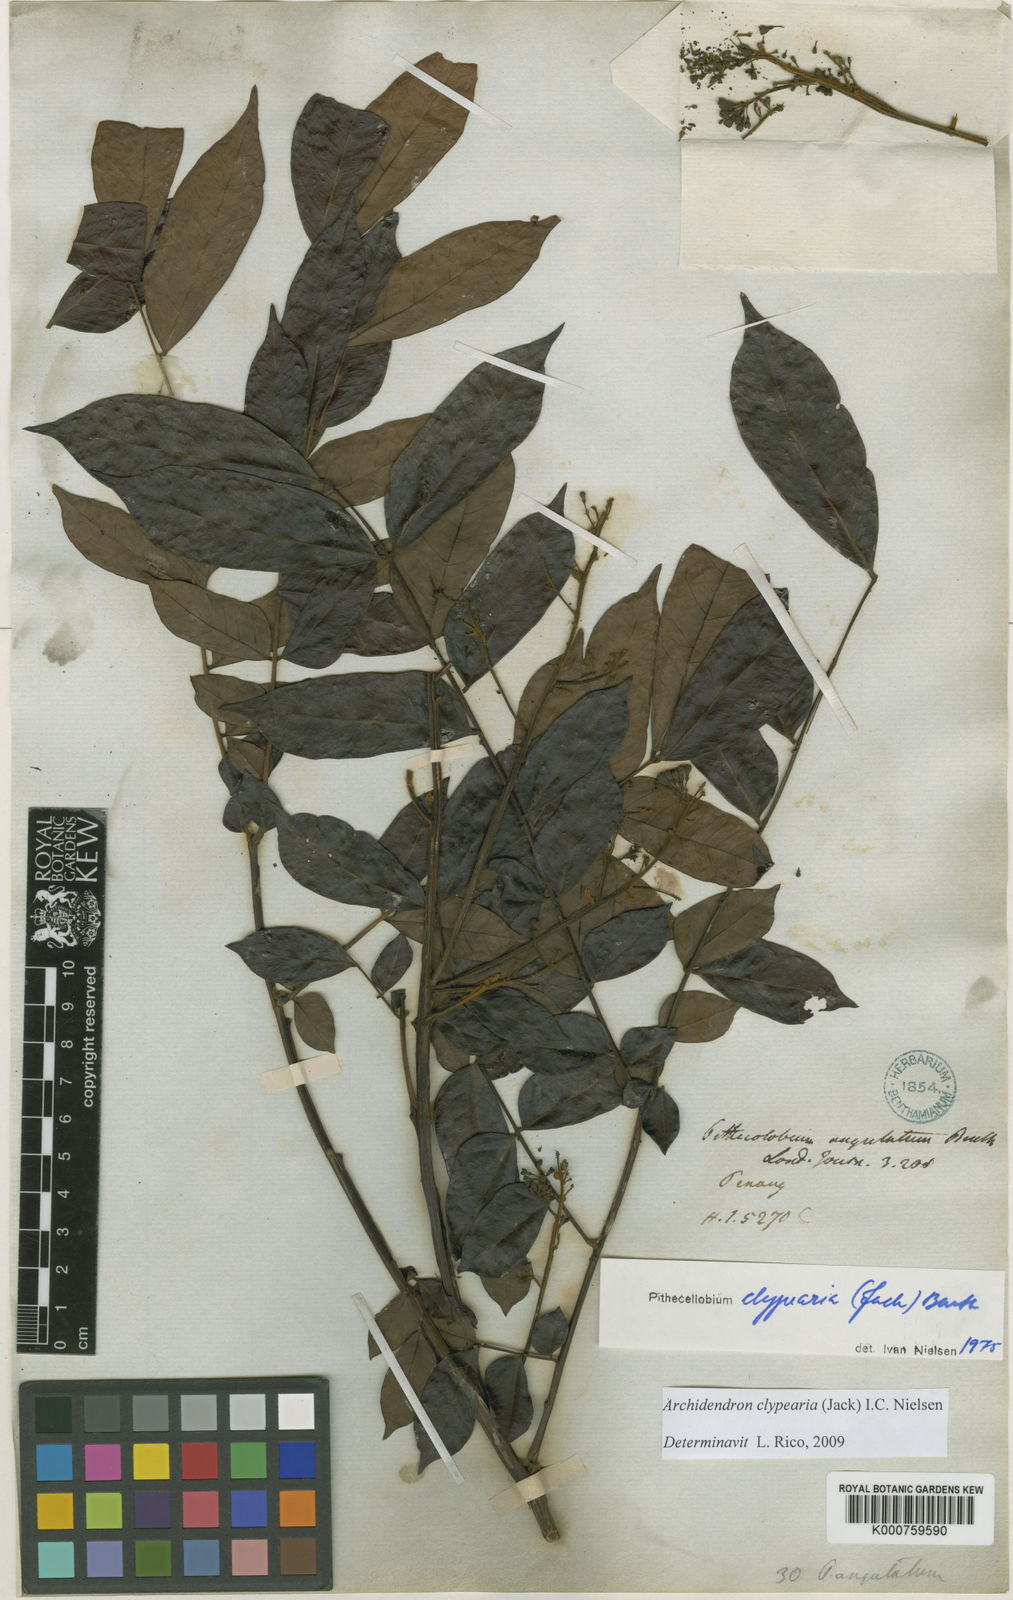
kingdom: Plantae
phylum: Tracheophyta
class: Magnoliopsida
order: Fabales
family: Fabaceae
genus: Archidendron
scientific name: Archidendron clypearia
